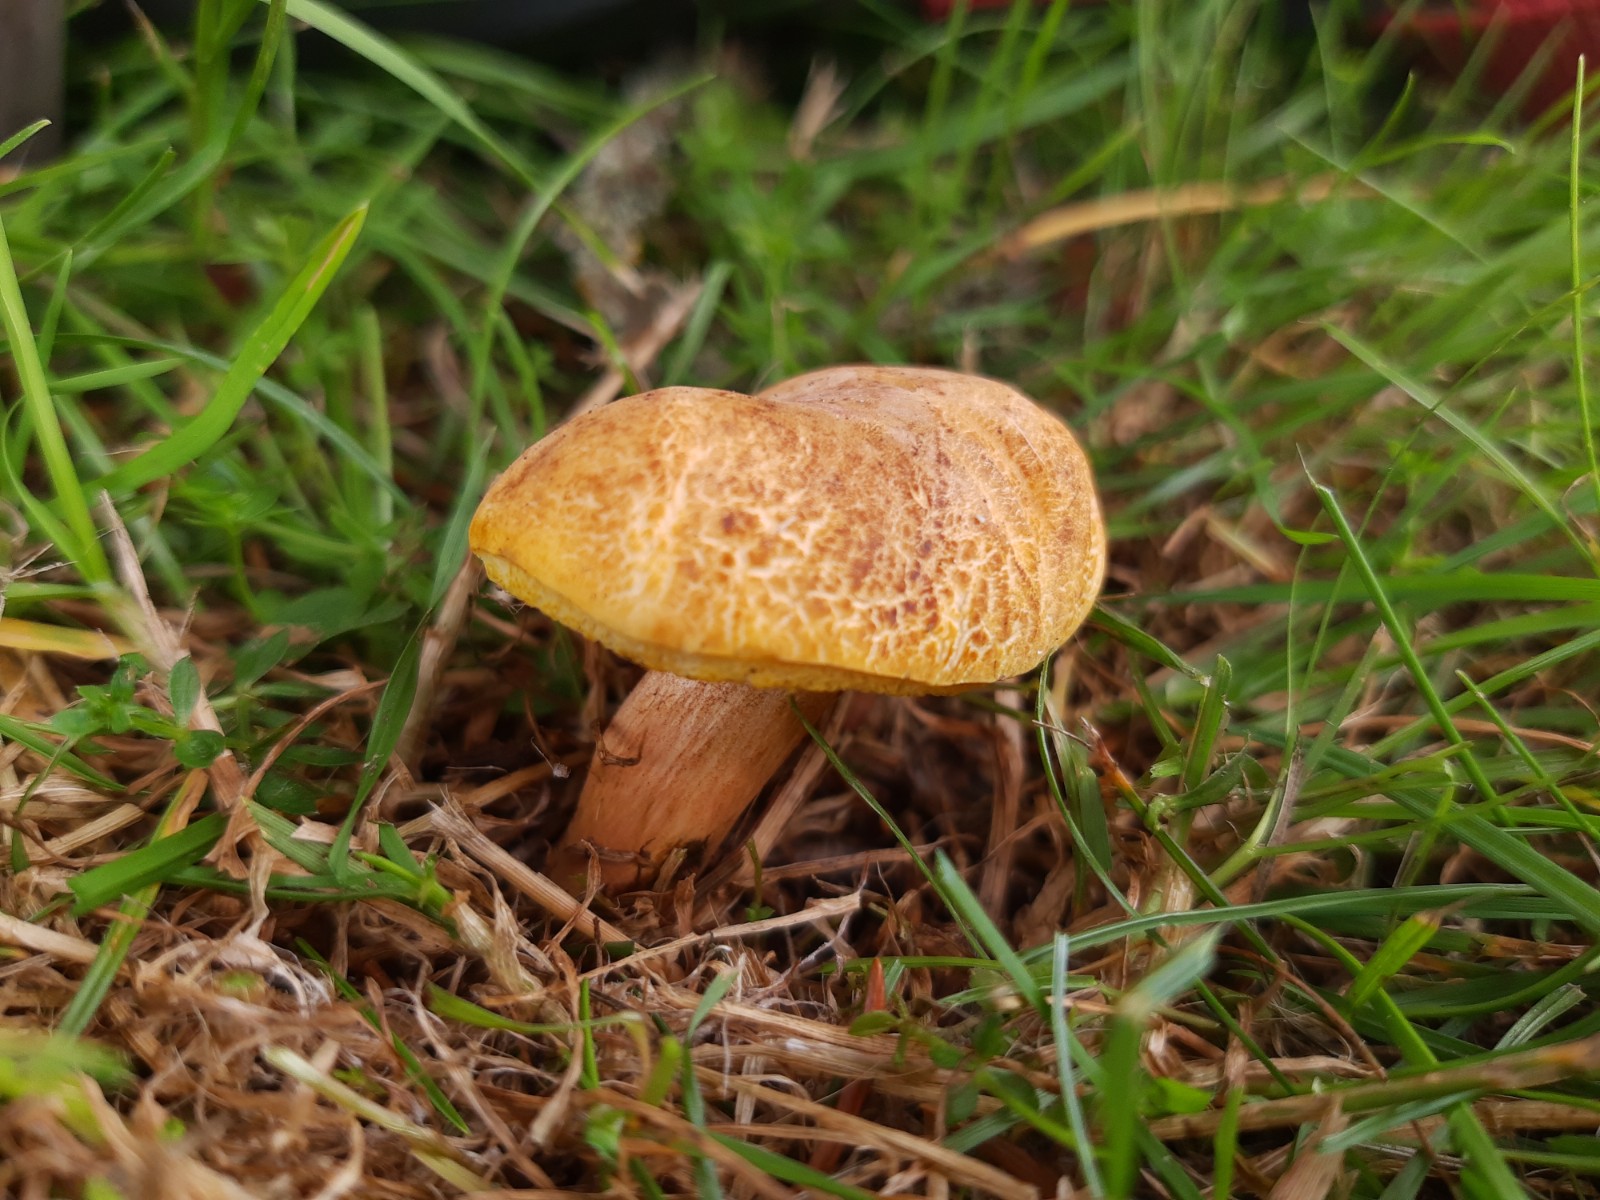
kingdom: Fungi
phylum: Basidiomycota
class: Agaricomycetes
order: Boletales
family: Boletaceae
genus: Hortiboletus
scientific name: Hortiboletus bubalinus
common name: aurora-rørhat
